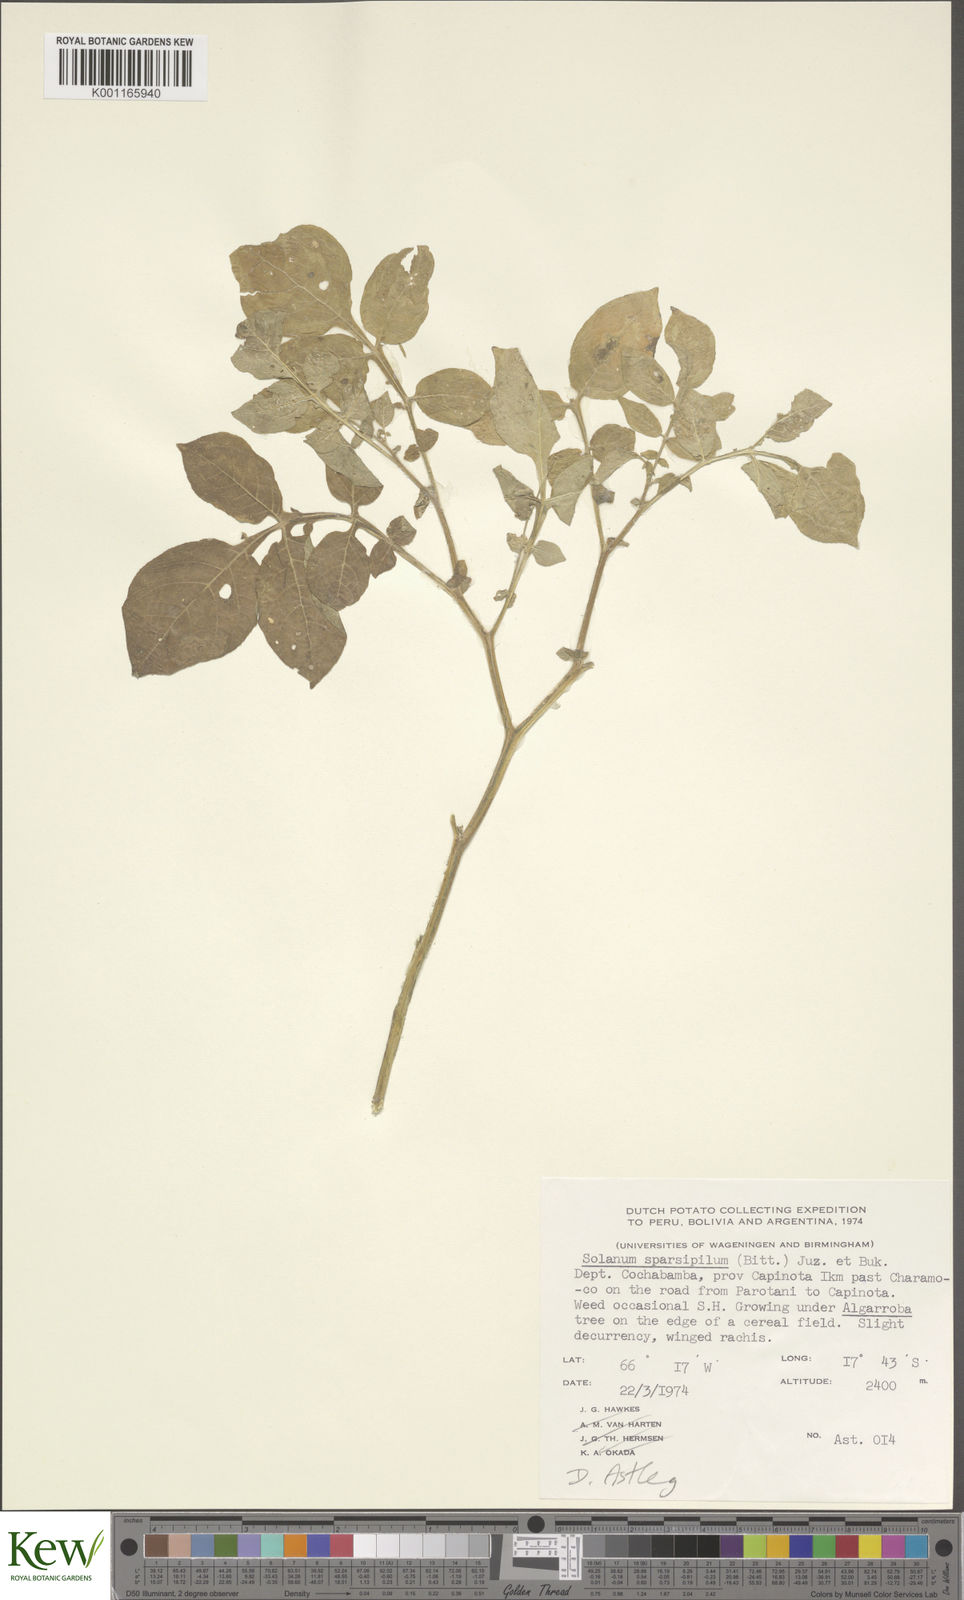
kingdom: Plantae
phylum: Tracheophyta
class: Magnoliopsida
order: Solanales
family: Solanaceae
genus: Solanum
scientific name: Solanum brevicaule
